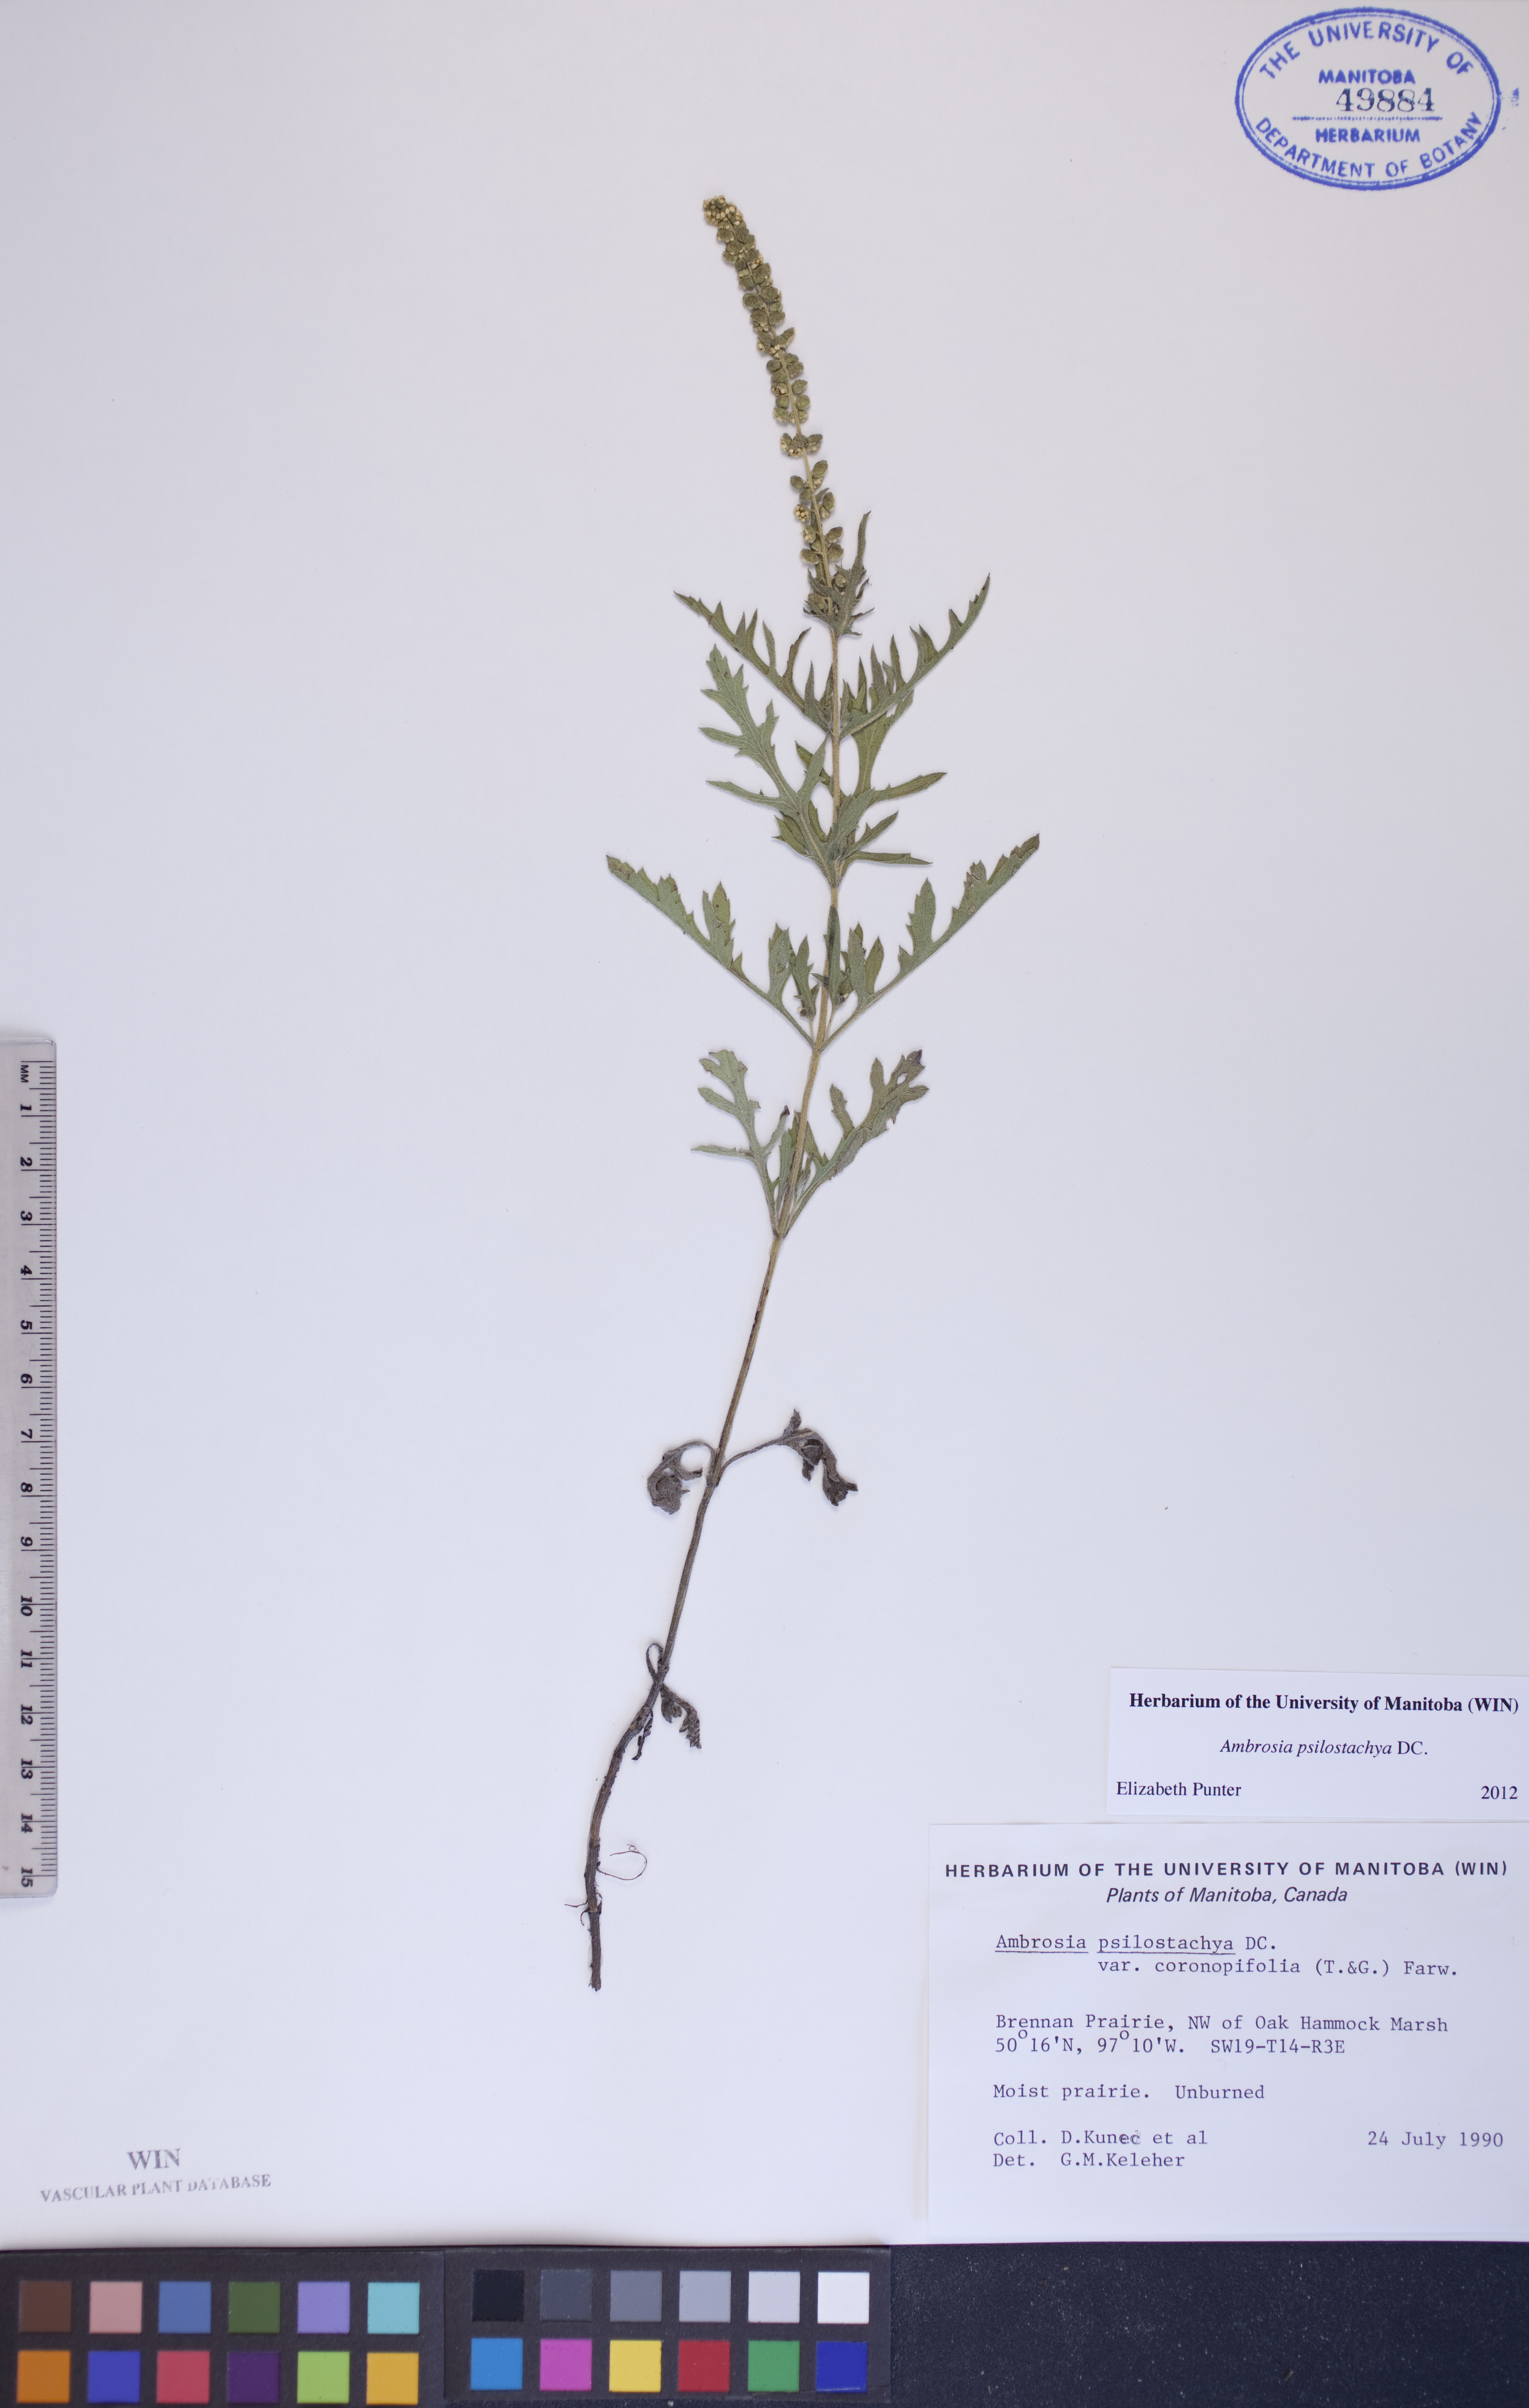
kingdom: Plantae
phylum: Tracheophyta
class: Magnoliopsida
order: Asterales
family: Asteraceae
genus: Ambrosia
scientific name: Ambrosia psilostachya
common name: Perennial ragweed
